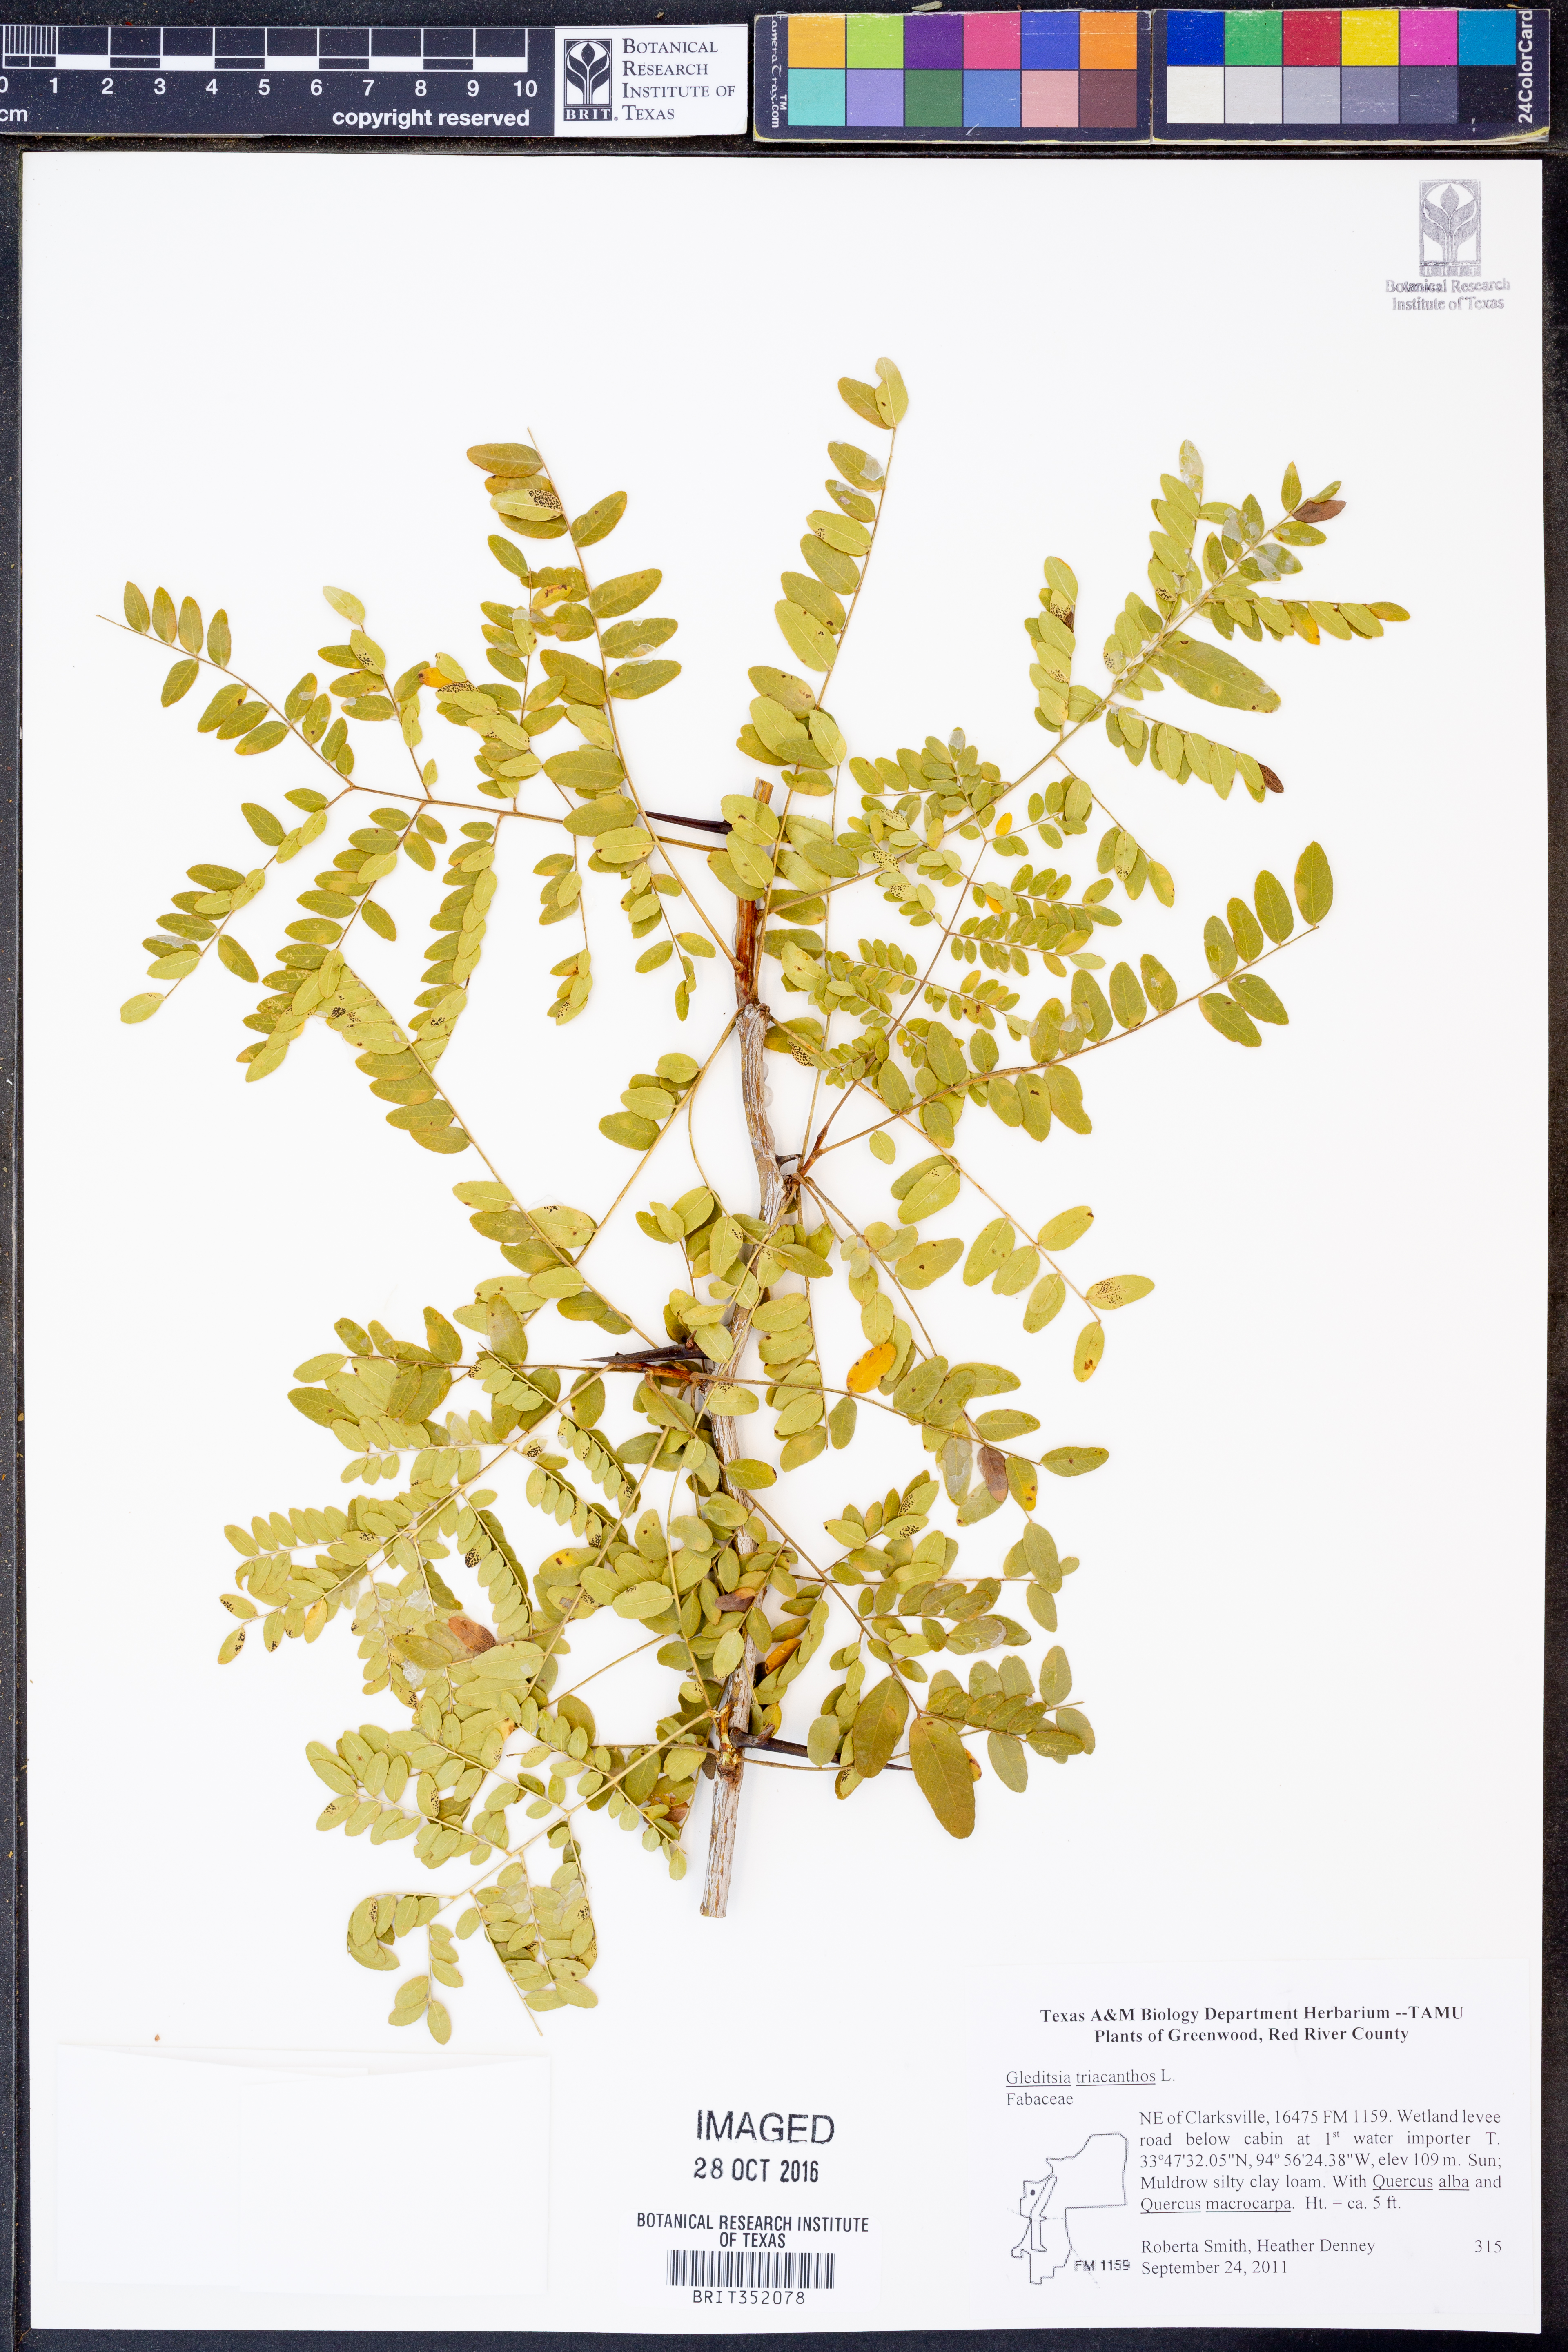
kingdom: Plantae
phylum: Tracheophyta
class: Magnoliopsida
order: Fabales
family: Fabaceae
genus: Gleditsia
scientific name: Gleditsia triacanthos
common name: Common honeylocust
